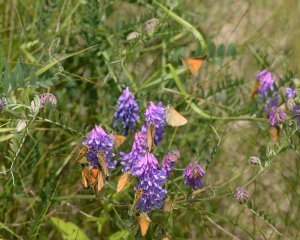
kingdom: Animalia
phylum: Arthropoda
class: Insecta
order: Lepidoptera
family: Hesperiidae
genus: Thymelicus
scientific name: Thymelicus lineola
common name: European Skipper
